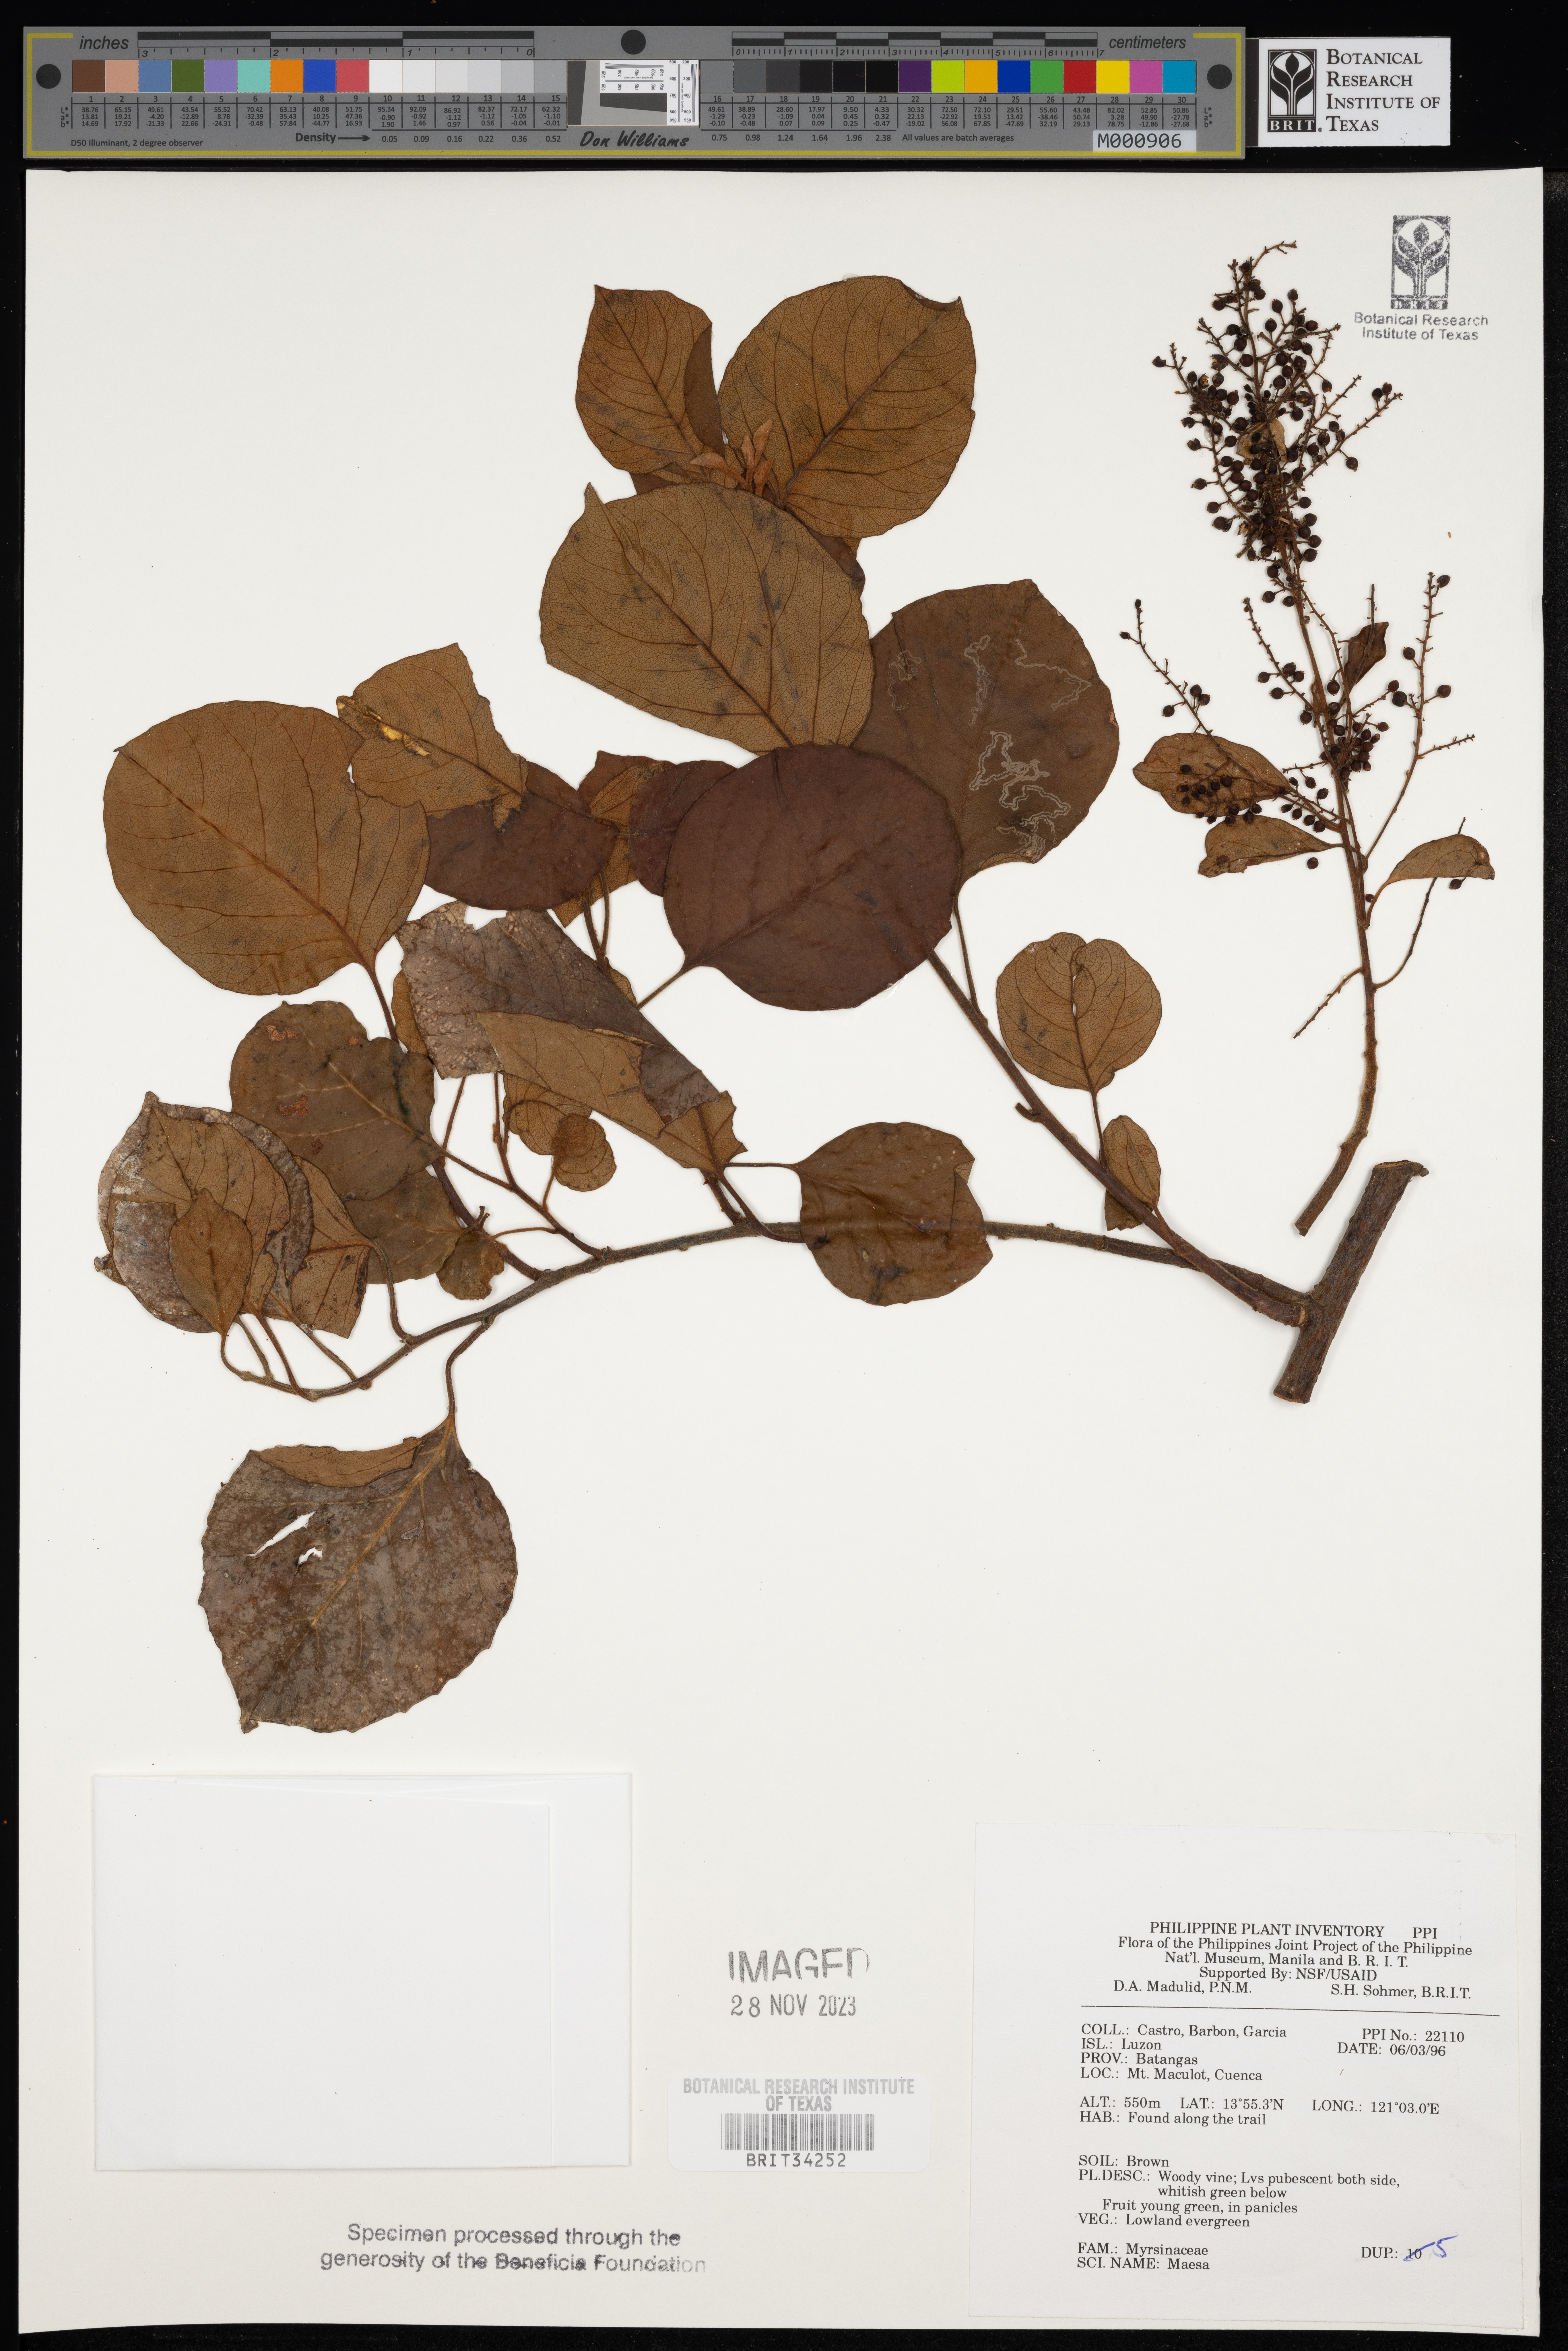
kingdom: Plantae
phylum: Tracheophyta
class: Magnoliopsida
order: Ericales
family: Primulaceae
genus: Maesa
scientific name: Maesa
